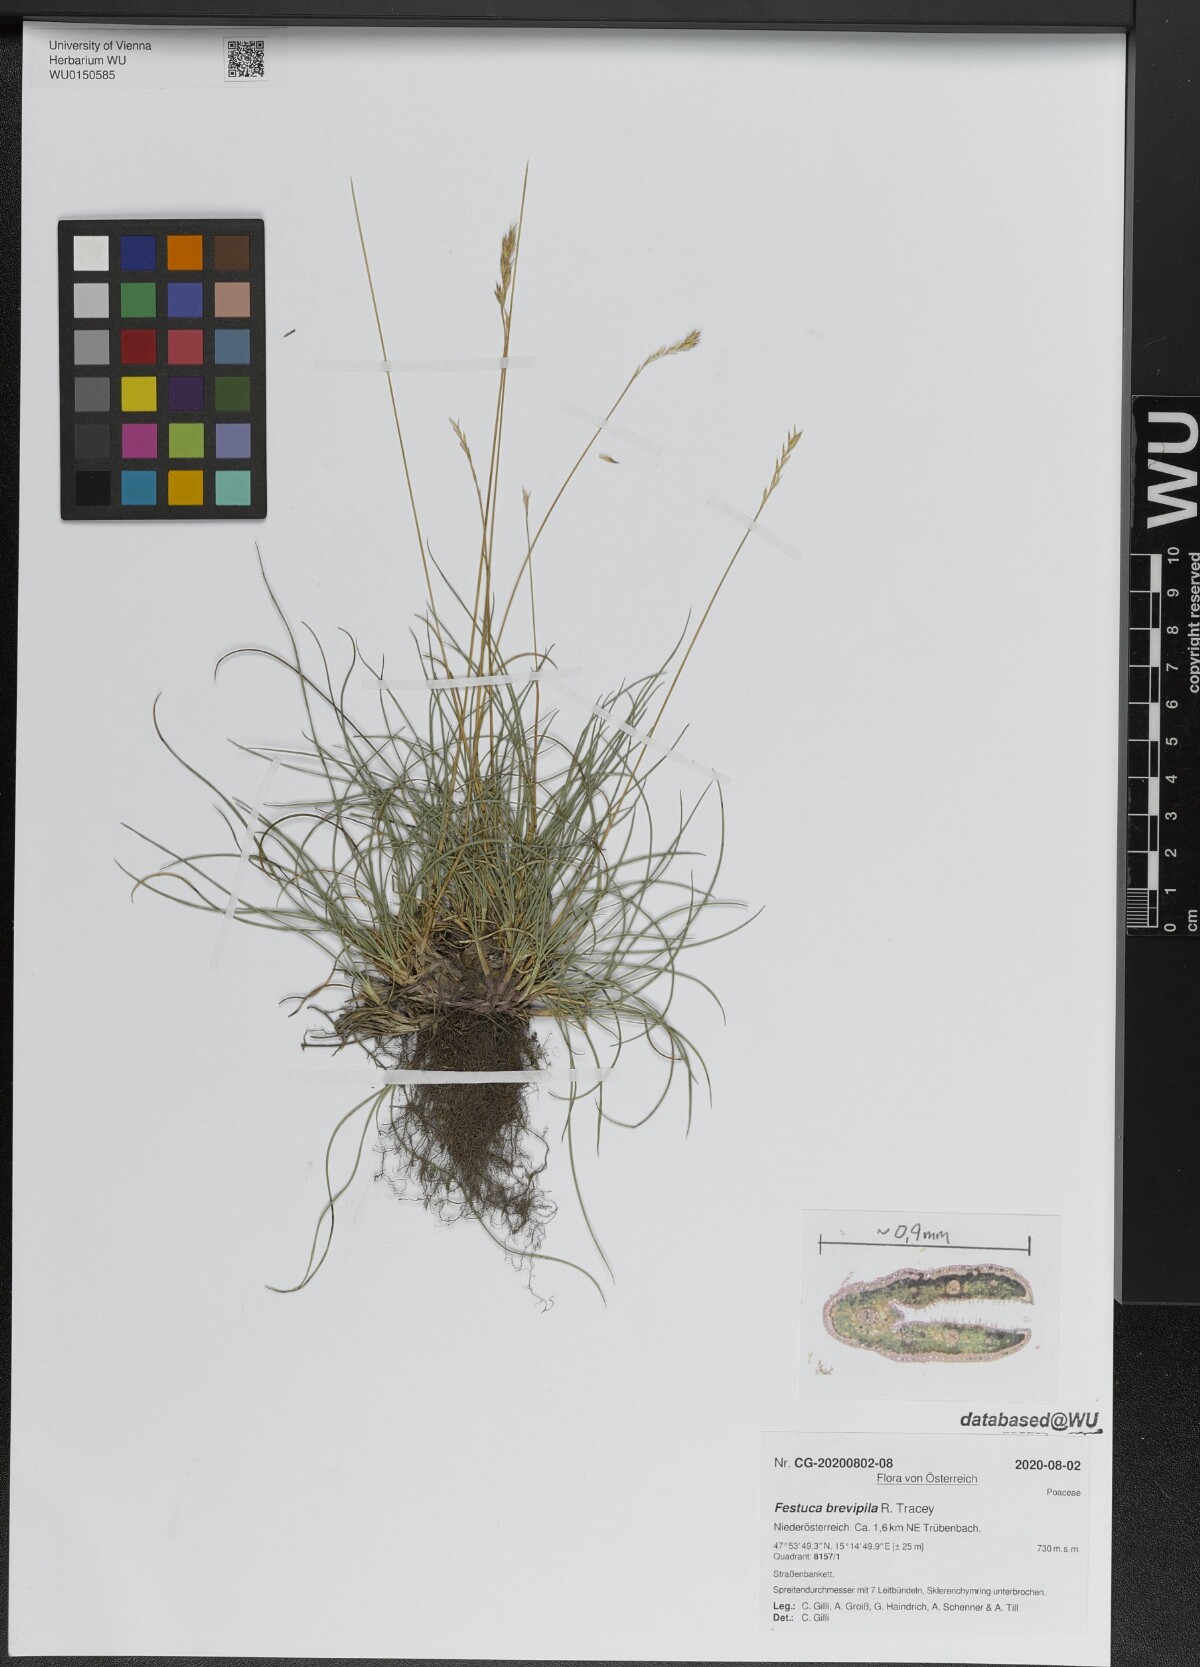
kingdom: Plantae
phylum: Tracheophyta
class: Liliopsida
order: Poales
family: Poaceae
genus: Festuca
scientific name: Festuca trachyphylla
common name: Hard fescue
